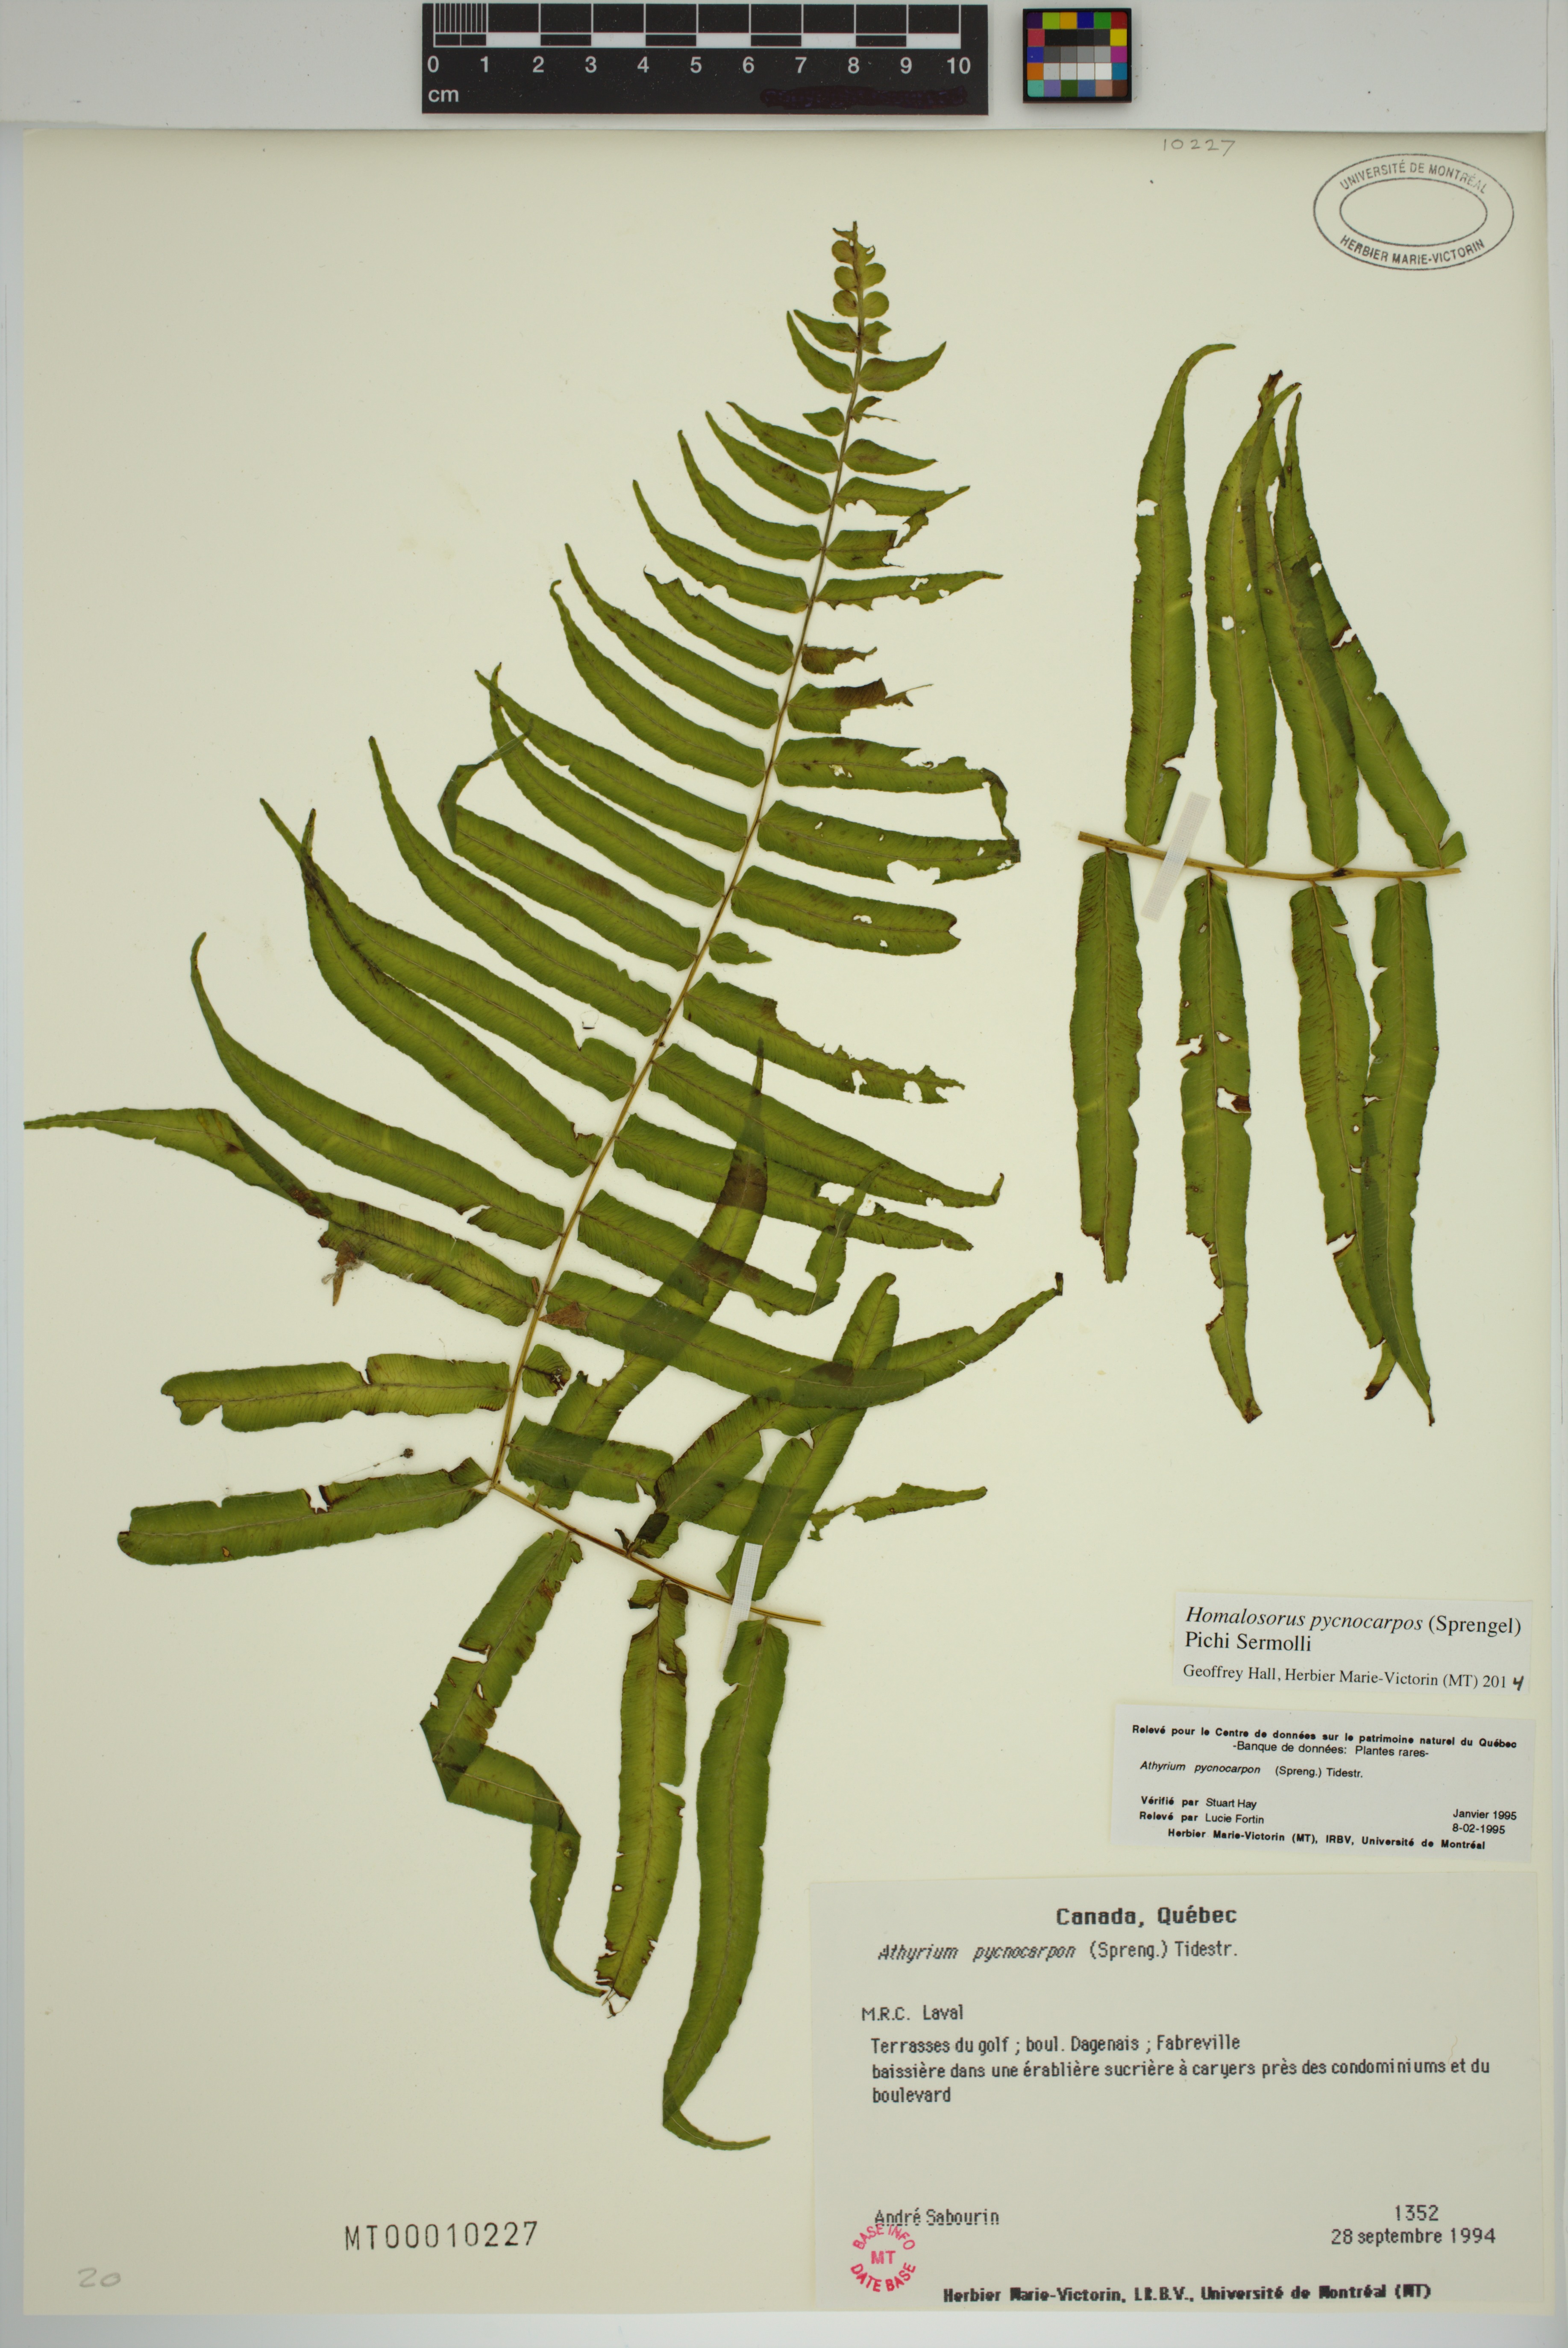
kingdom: Plantae
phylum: Tracheophyta
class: Polypodiopsida
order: Polypodiales
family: Diplaziopsidaceae
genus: Homalosorus
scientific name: Homalosorus pycnocarpos
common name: Glade fern
